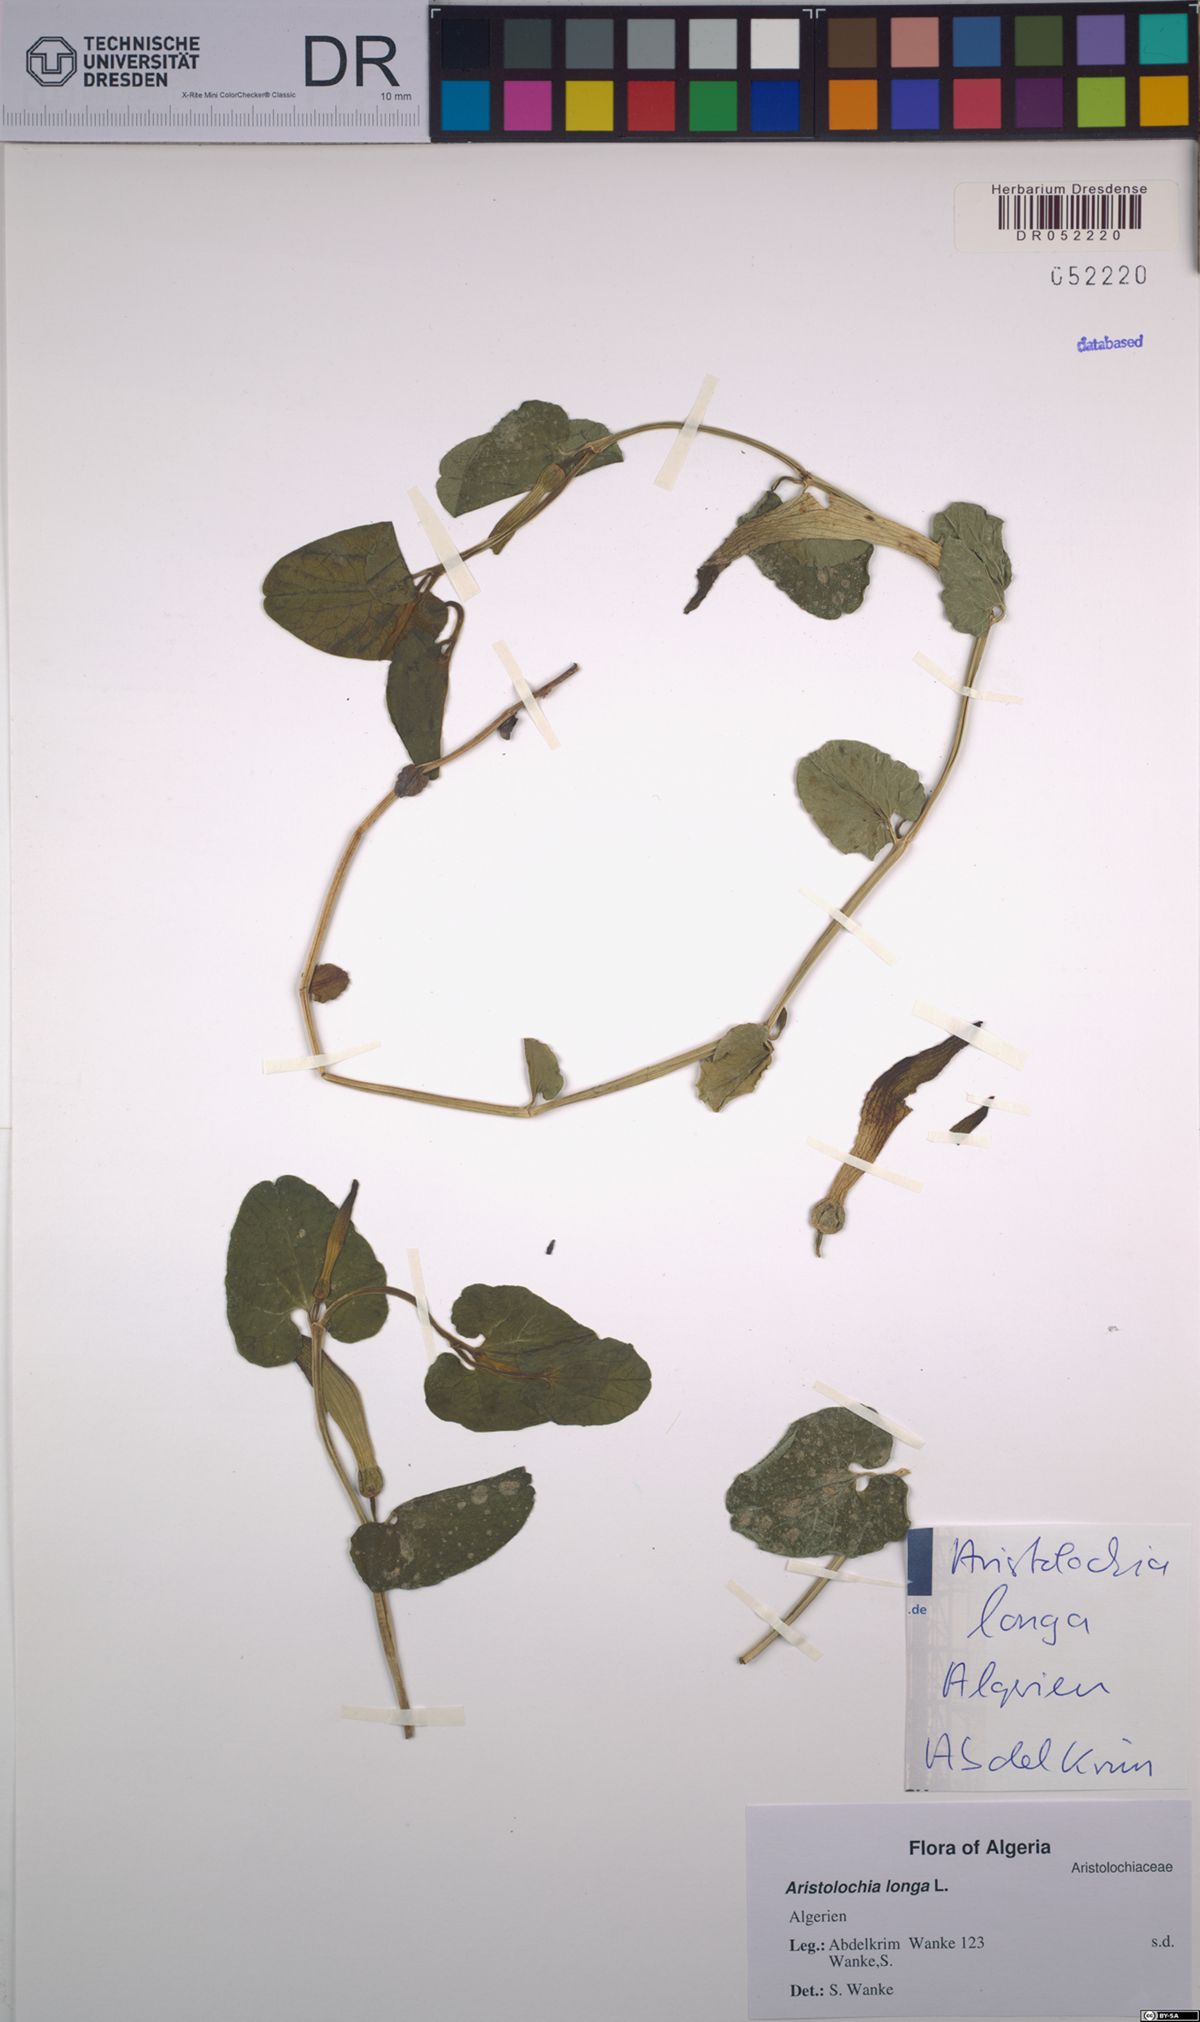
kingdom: Plantae
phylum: Tracheophyta
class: Magnoliopsida
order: Piperales
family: Aristolochiaceae
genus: Aristolochia
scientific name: Aristolochia fontanesii
